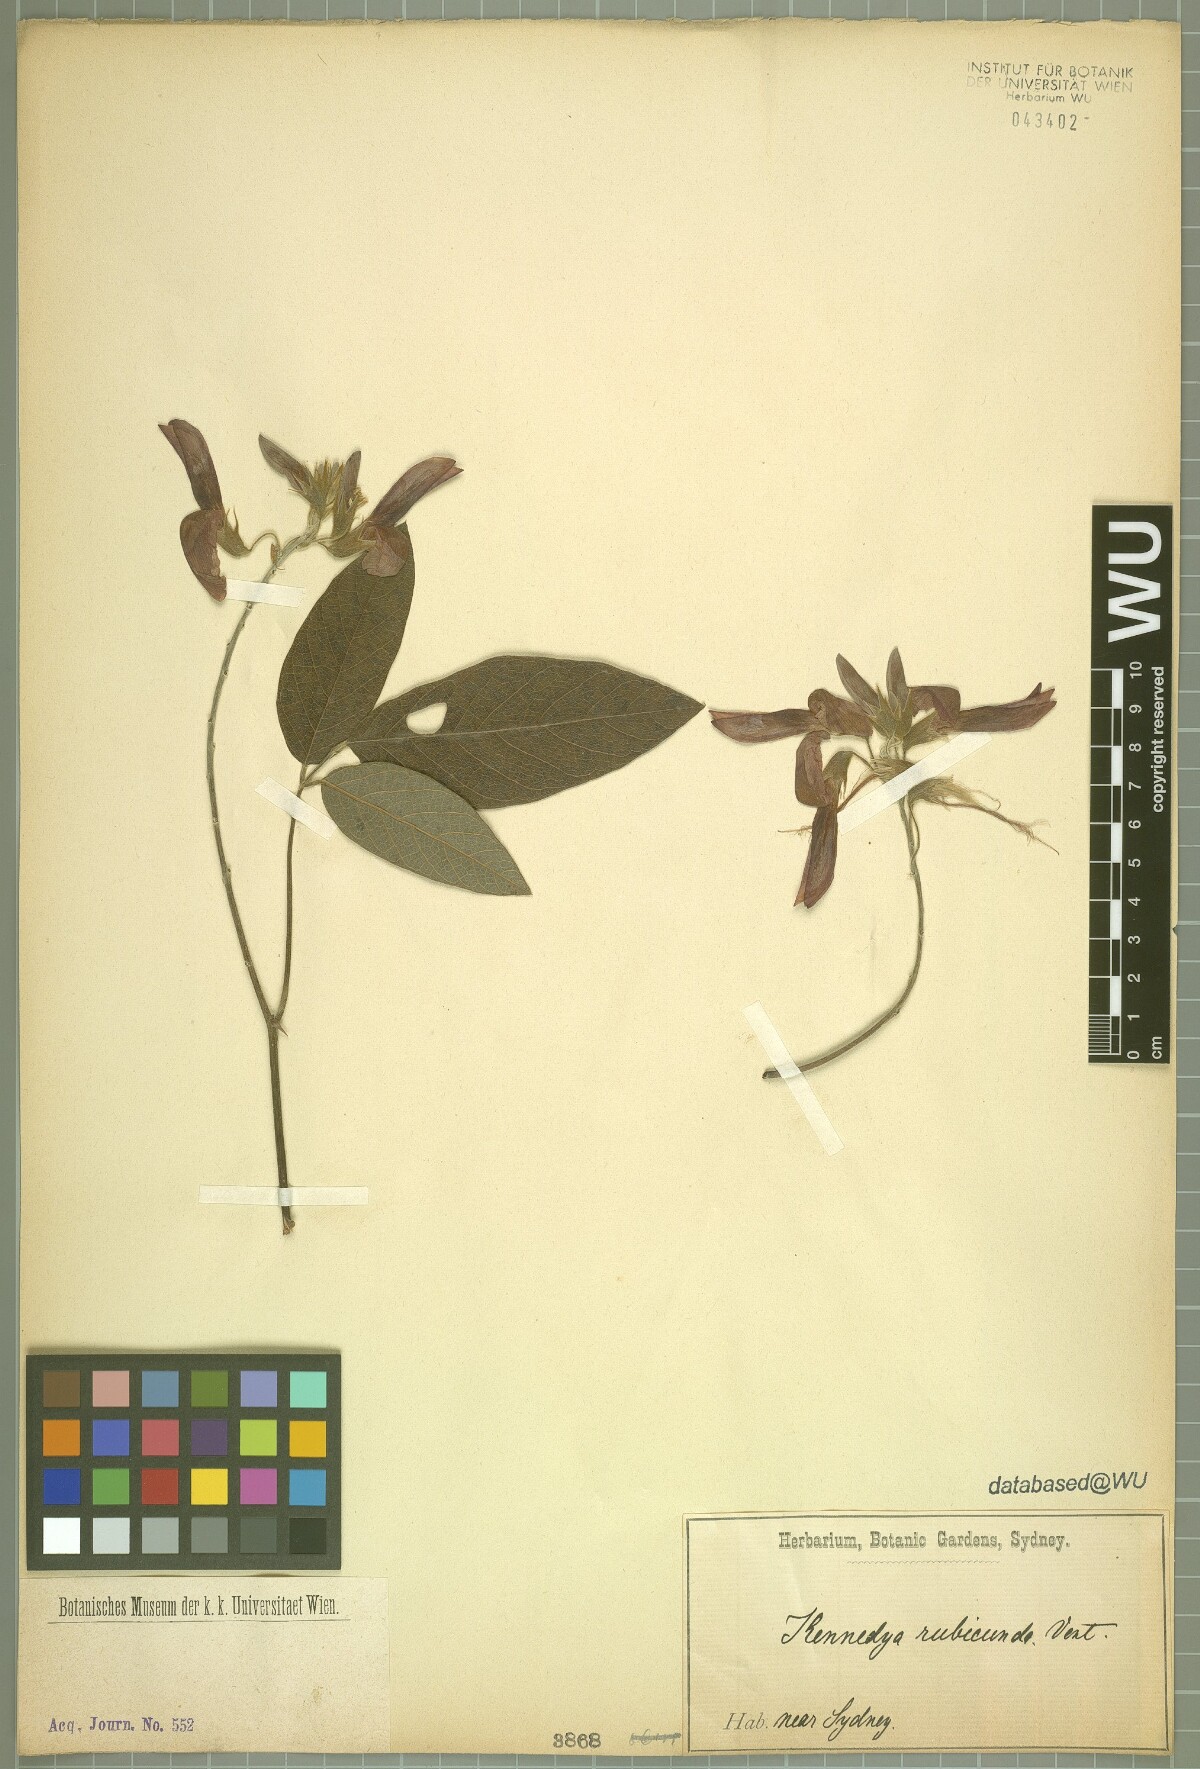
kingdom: Plantae
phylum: Tracheophyta
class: Magnoliopsida
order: Fabales
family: Fabaceae
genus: Kennedia
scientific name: Kennedia rubicunda
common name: Red kennedy-pea
